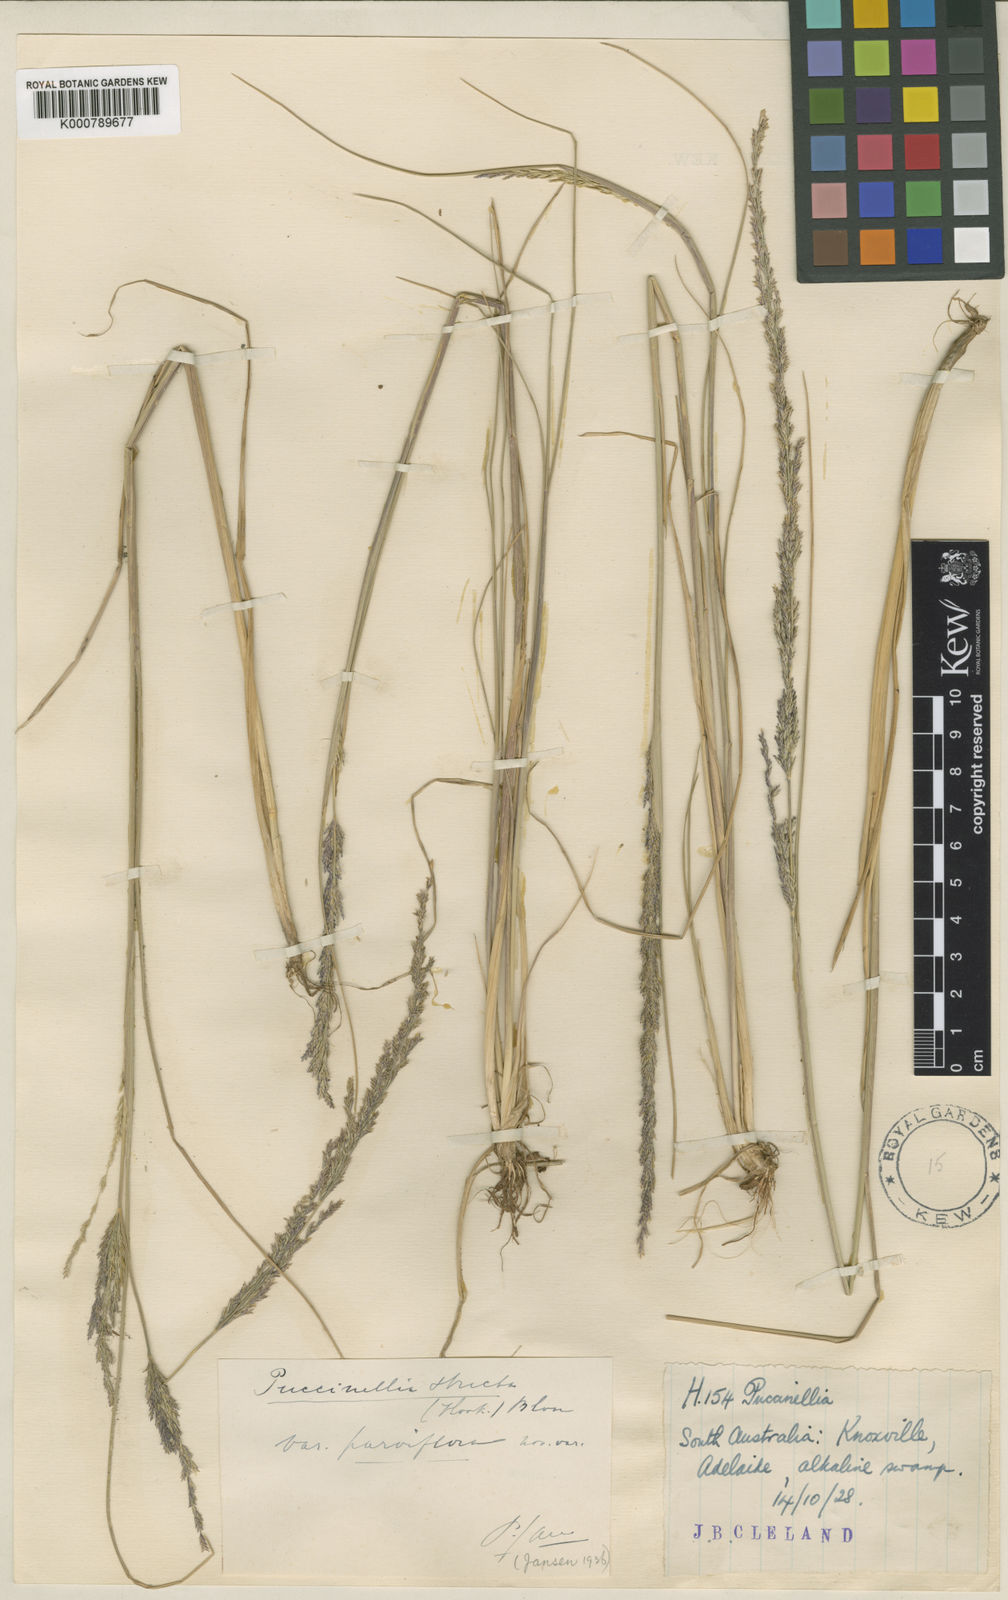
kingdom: Plantae
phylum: Tracheophyta
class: Liliopsida
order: Poales
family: Poaceae
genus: Puccinellia
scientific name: Puccinellia stricta
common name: Australian saltmarsh grass
